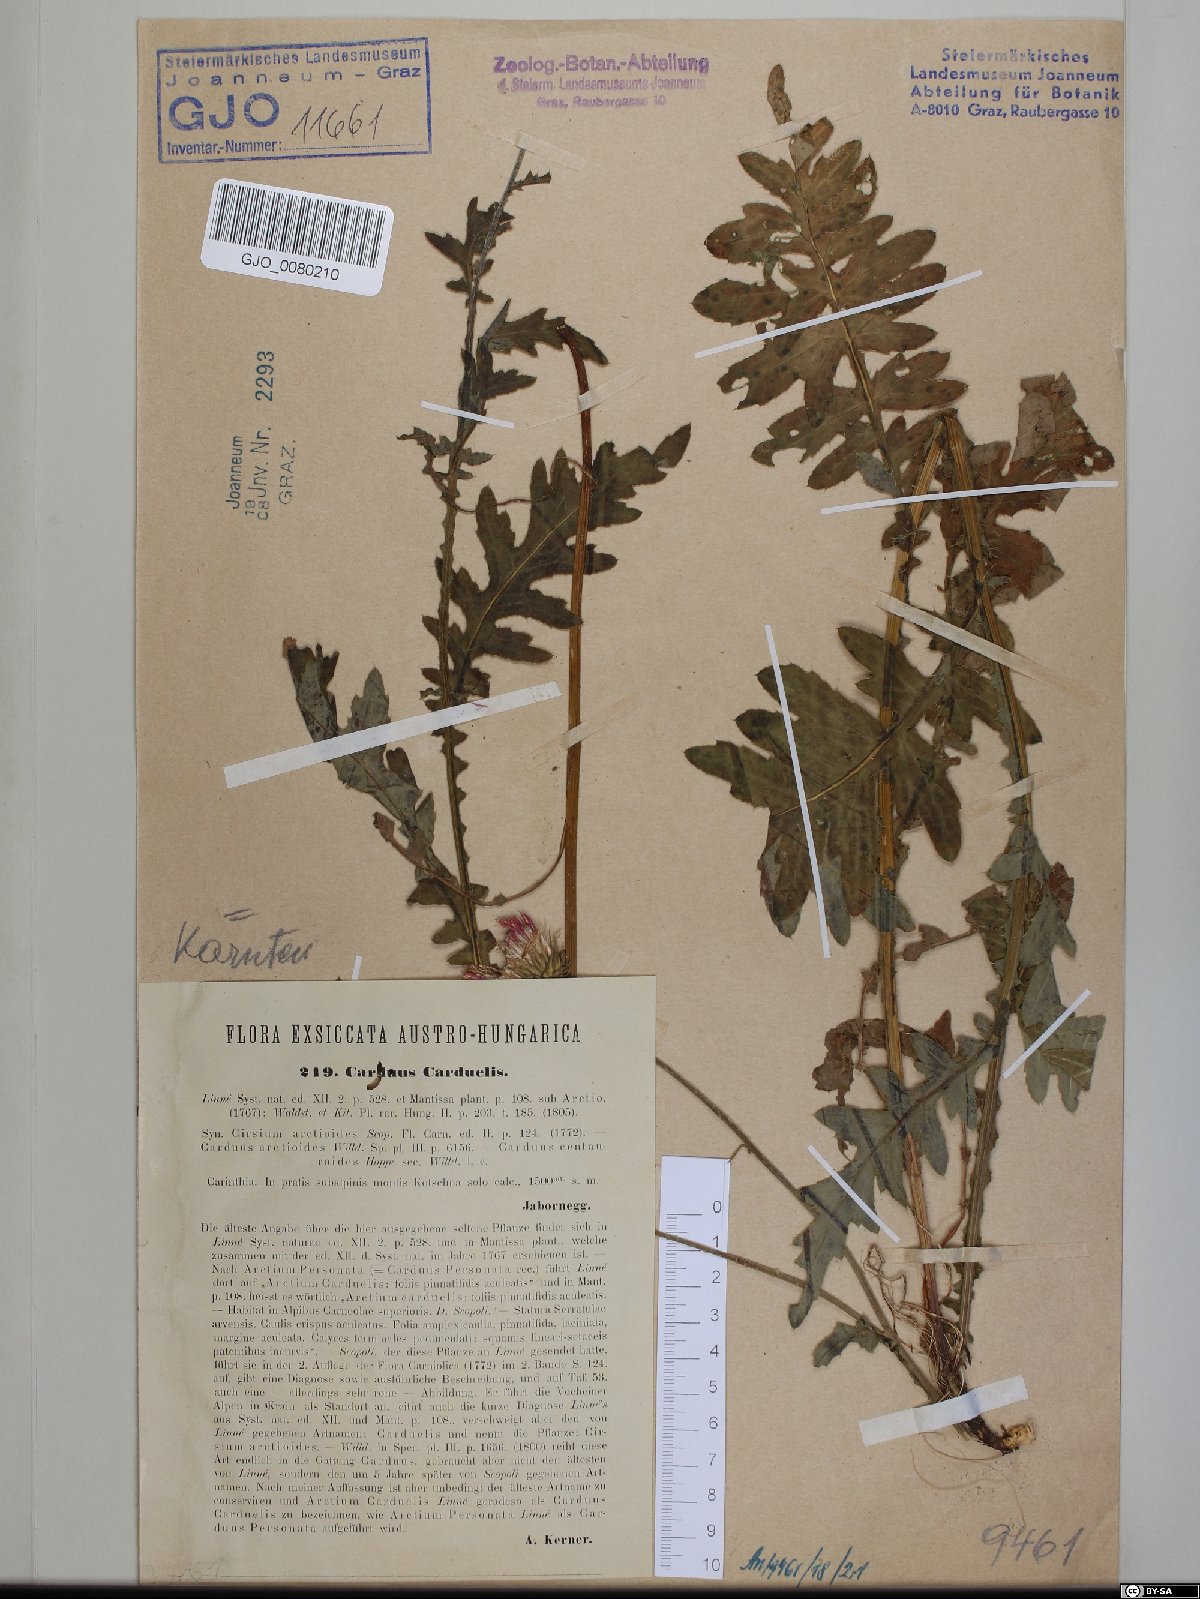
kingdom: Plantae
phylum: Tracheophyta
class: Magnoliopsida
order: Asterales
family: Asteraceae
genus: Carduus
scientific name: Carduus carduelis
